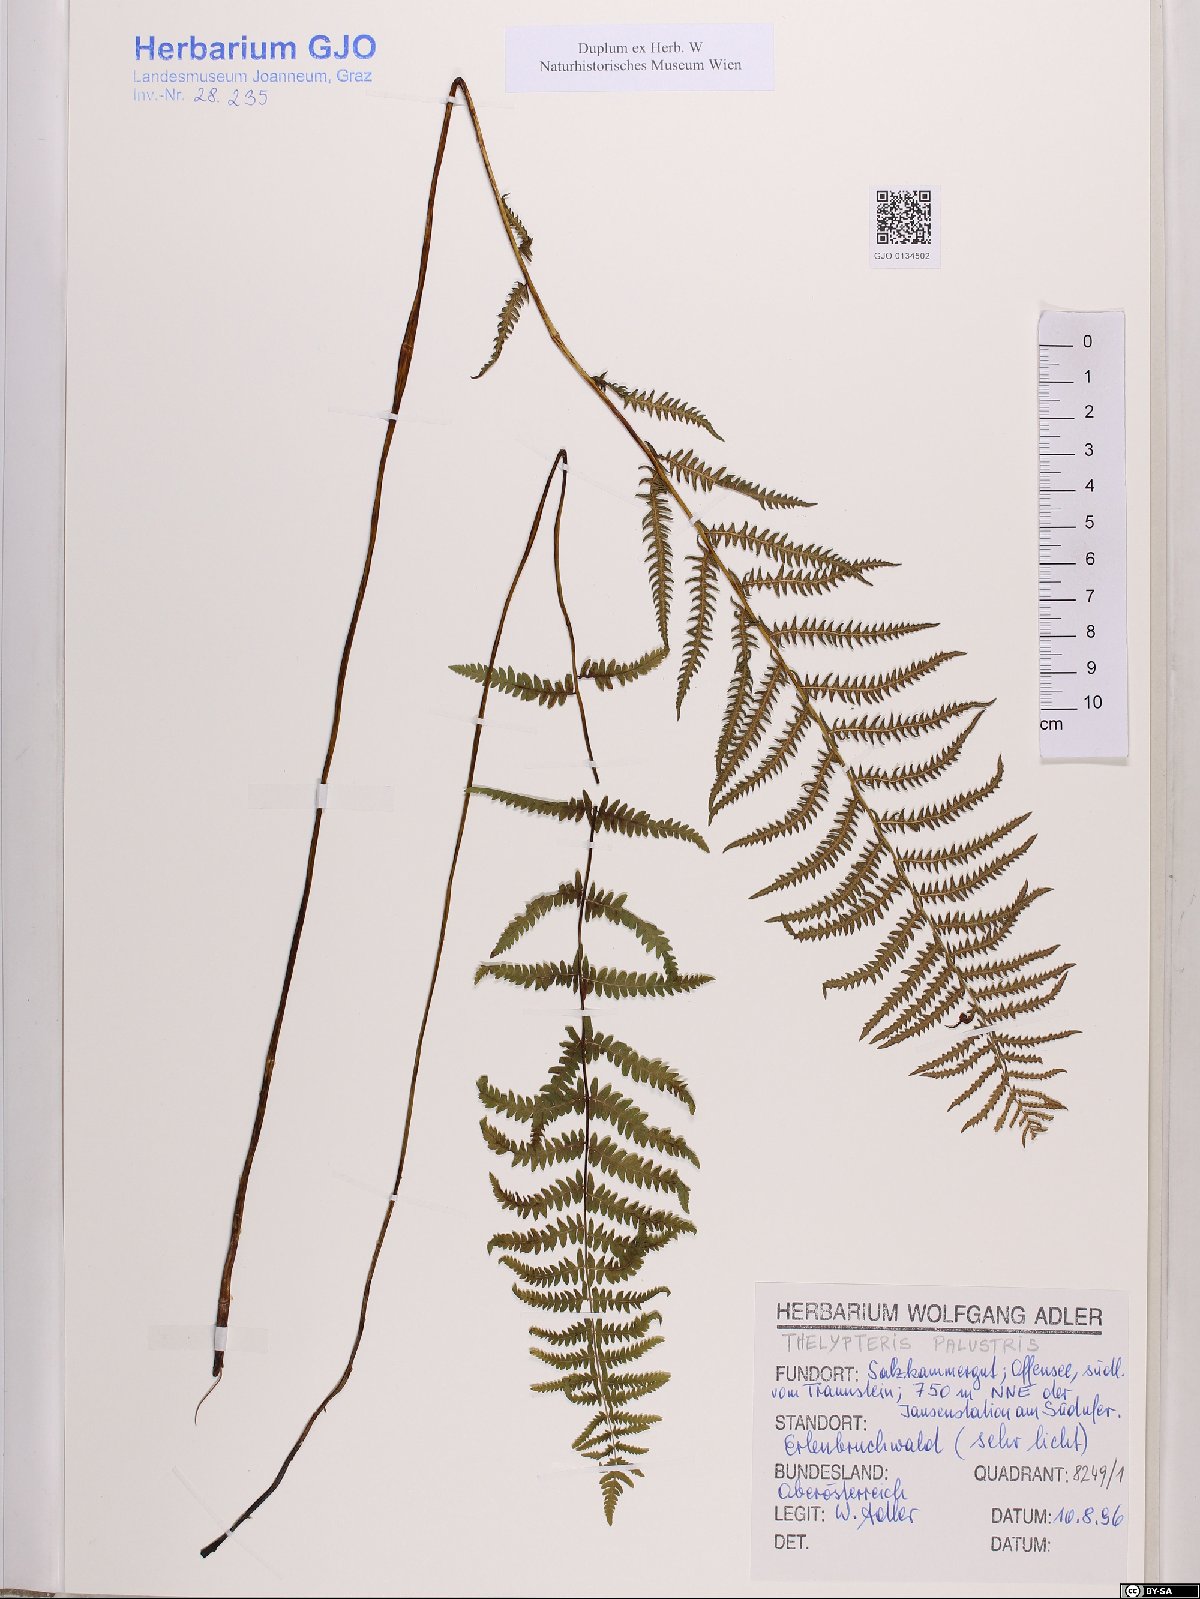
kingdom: Plantae
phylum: Tracheophyta
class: Polypodiopsida
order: Polypodiales
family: Thelypteridaceae
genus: Thelypteris
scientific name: Thelypteris palustris
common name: Marsh fern
